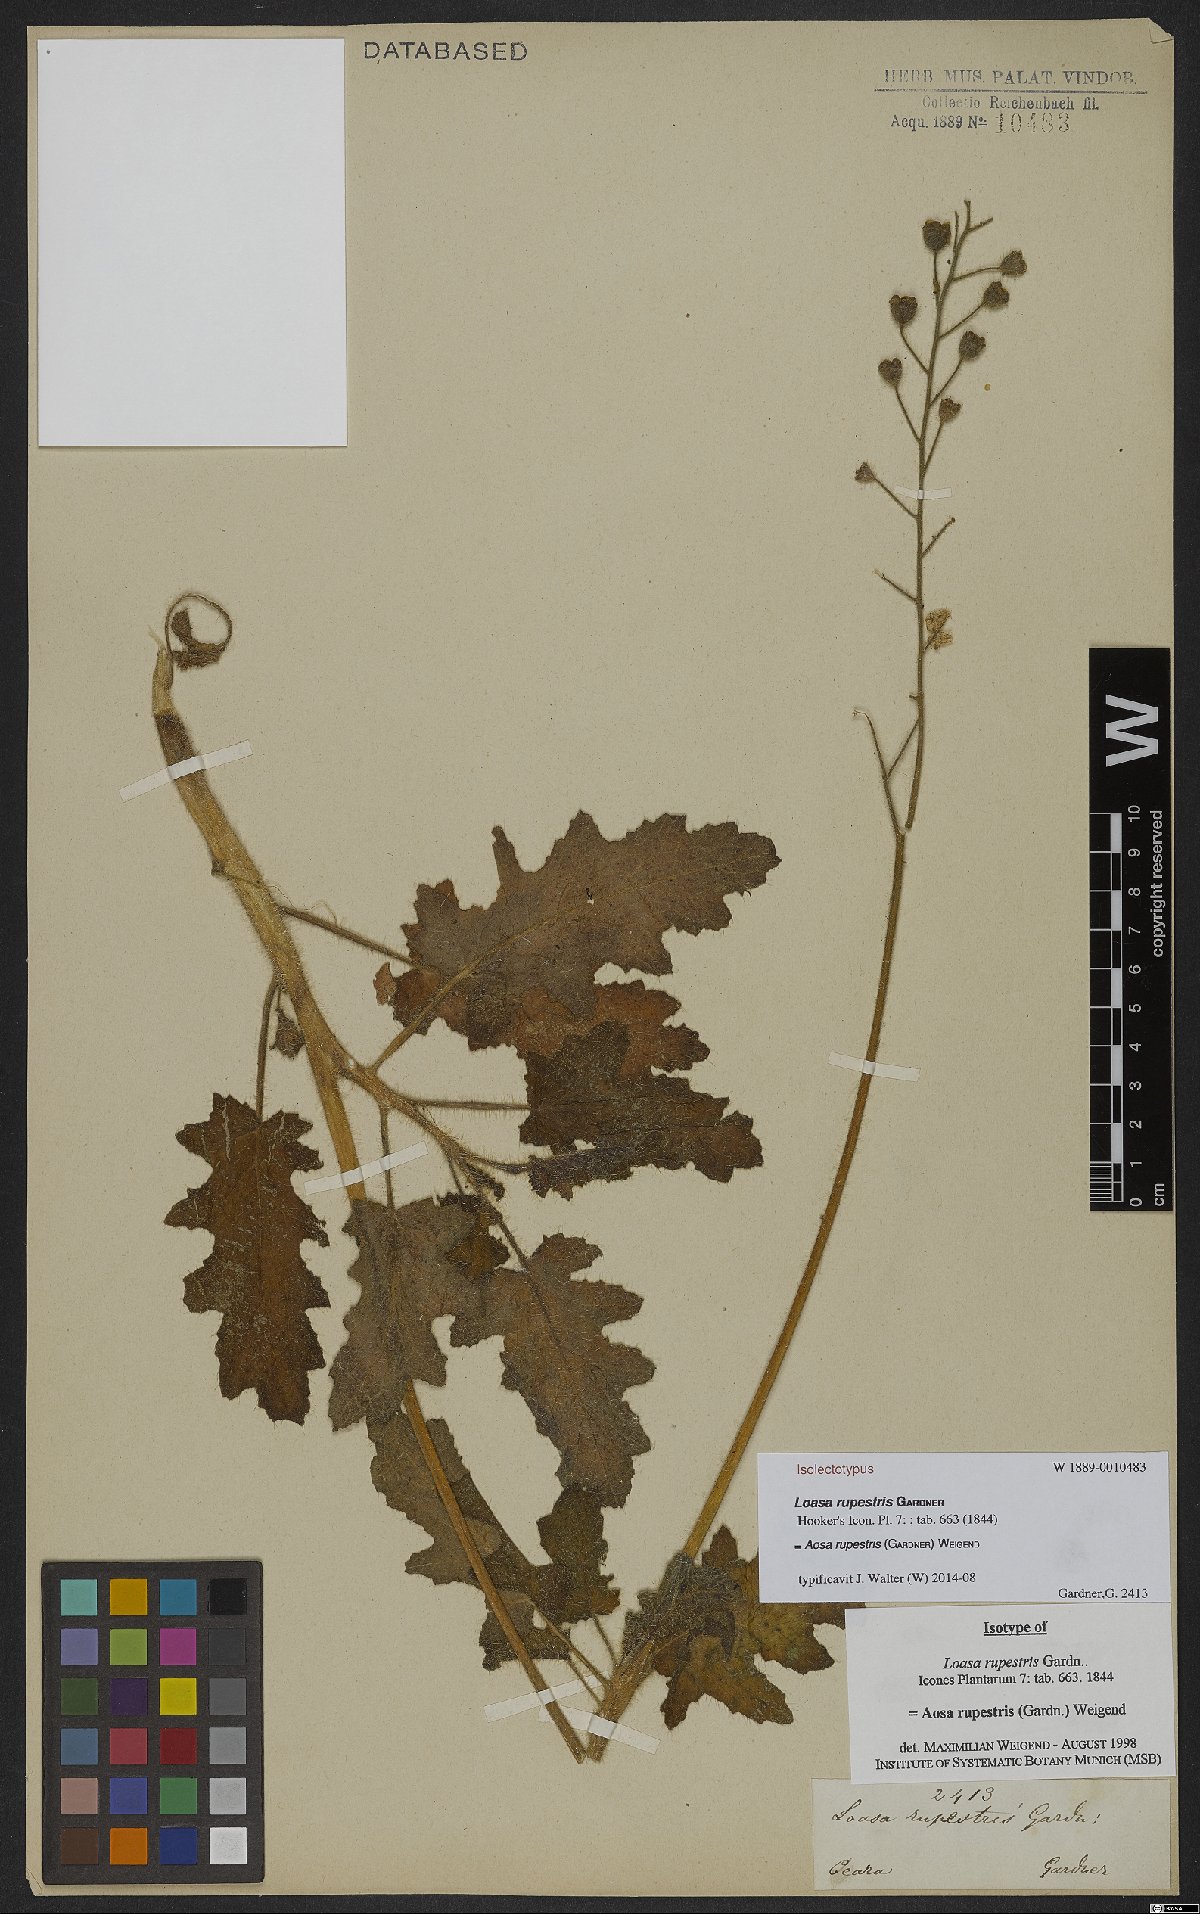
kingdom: Plantae
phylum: Tracheophyta
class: Magnoliopsida
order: Cornales
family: Loasaceae
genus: Aosa
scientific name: Aosa rupestris
